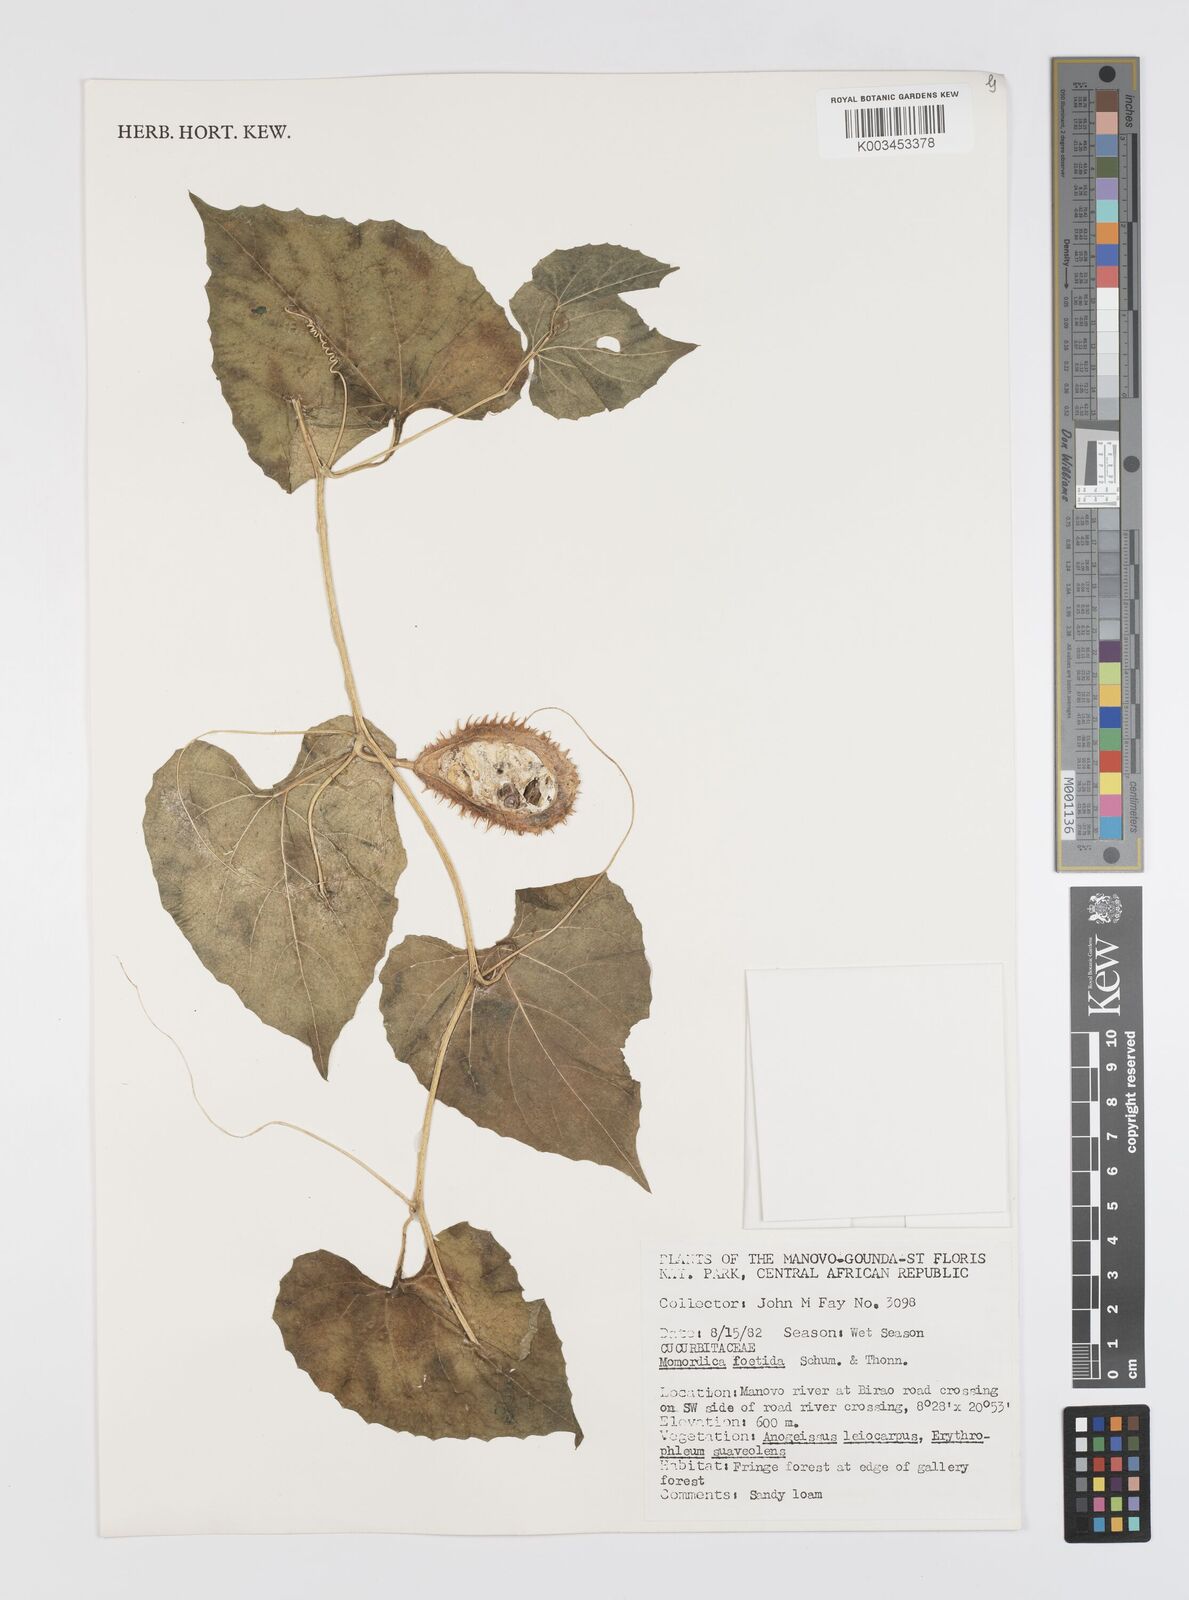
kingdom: Plantae
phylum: Tracheophyta
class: Magnoliopsida
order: Cucurbitales
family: Cucurbitaceae
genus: Momordica
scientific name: Momordica foetida
